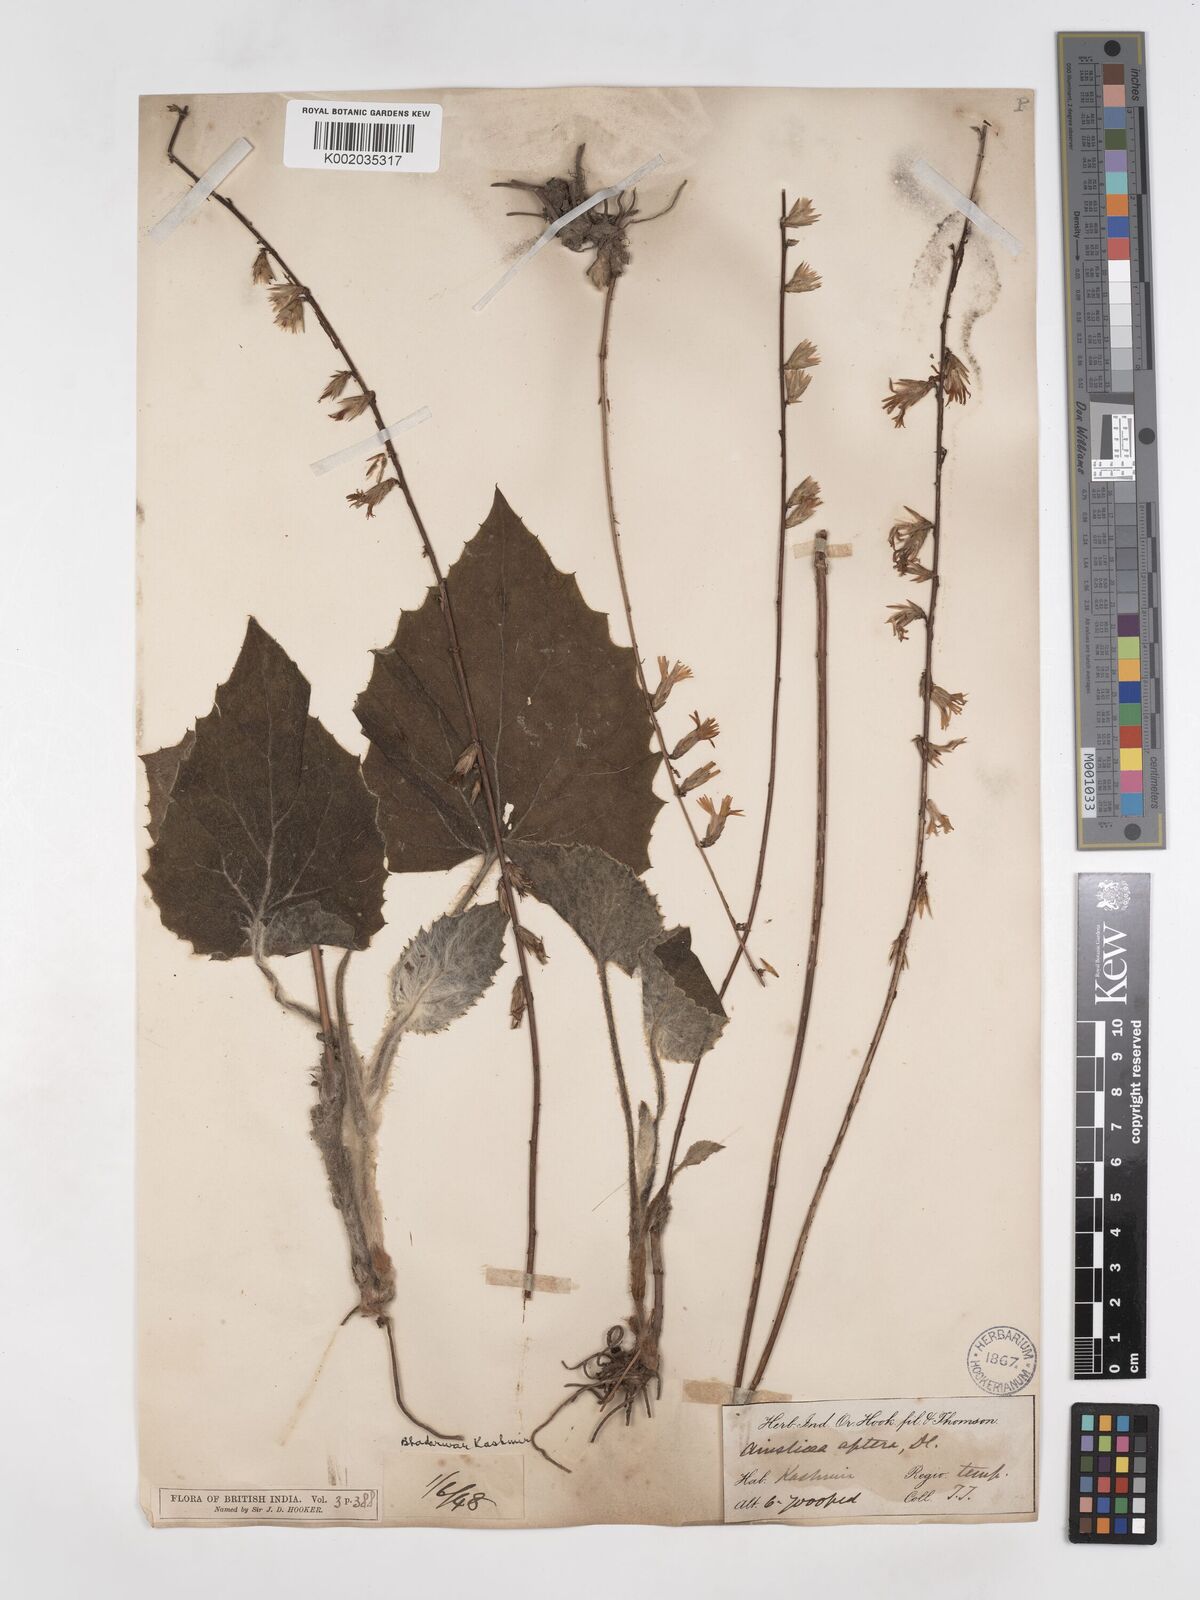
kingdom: Plantae
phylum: Tracheophyta
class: Magnoliopsida
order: Asterales
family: Asteraceae
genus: Ainsliaea
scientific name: Ainsliaea aptera
